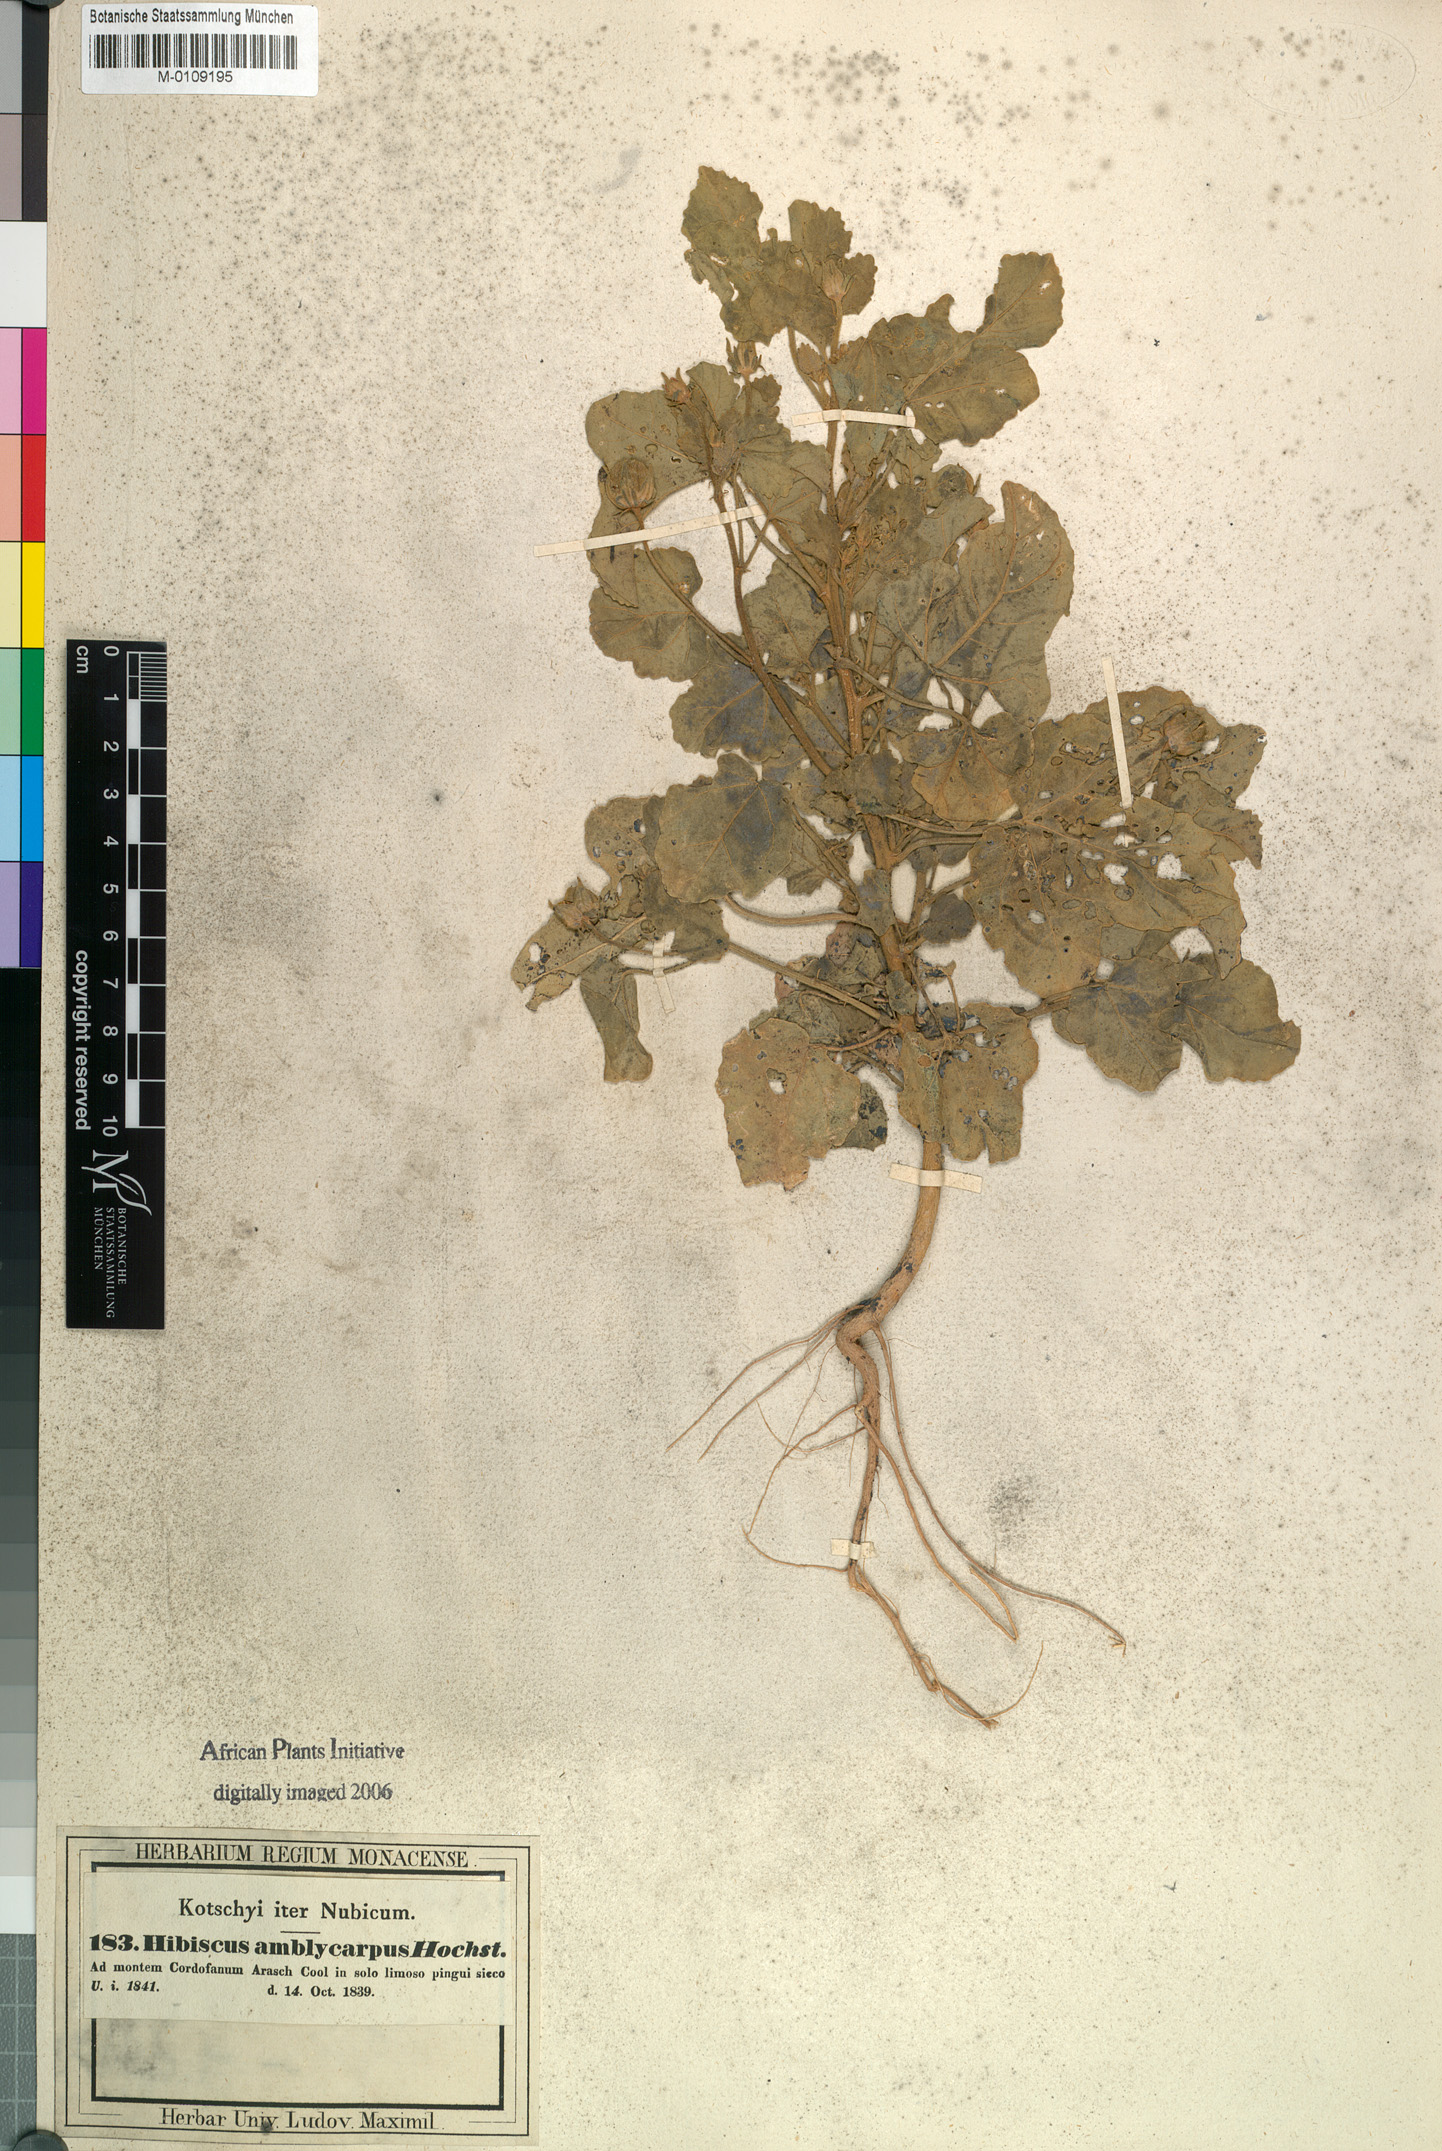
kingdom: Plantae
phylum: Tracheophyta
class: Magnoliopsida
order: Malvales
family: Malvaceae
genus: Hibiscus
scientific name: Hibiscus obtusilobus
